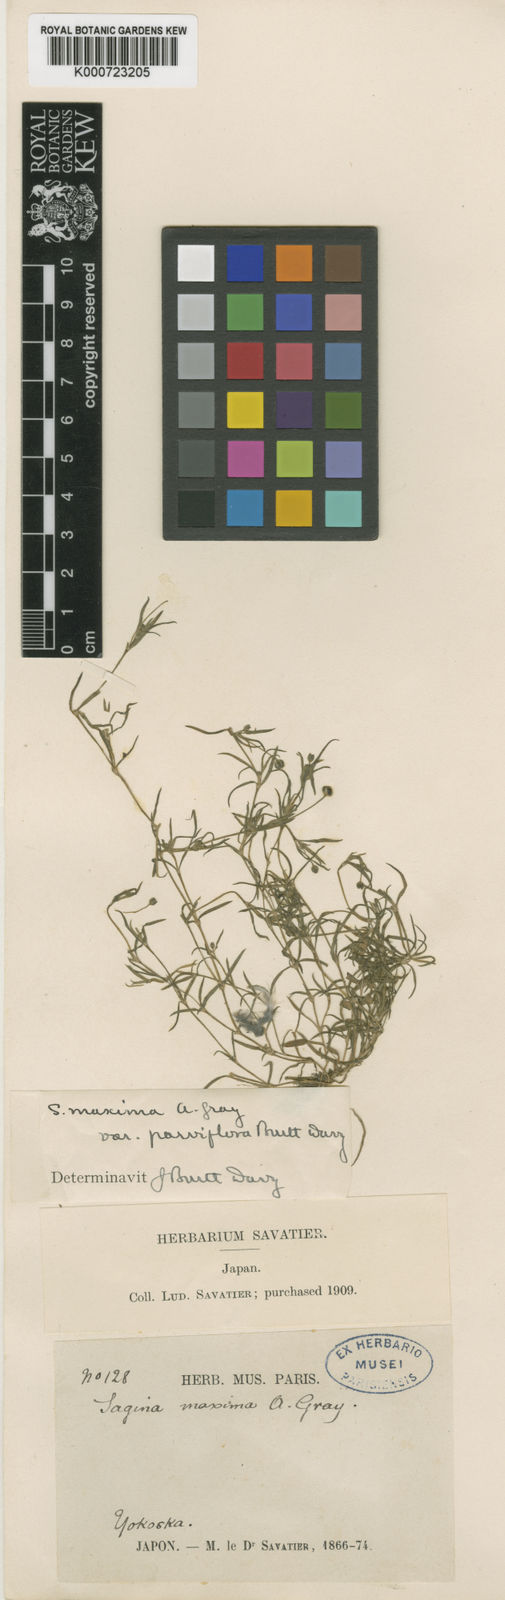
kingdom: Plantae
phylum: Tracheophyta
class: Magnoliopsida
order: Caryophyllales
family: Caryophyllaceae
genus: Sagina
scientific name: Sagina maxima
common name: Coastal pearlwort
